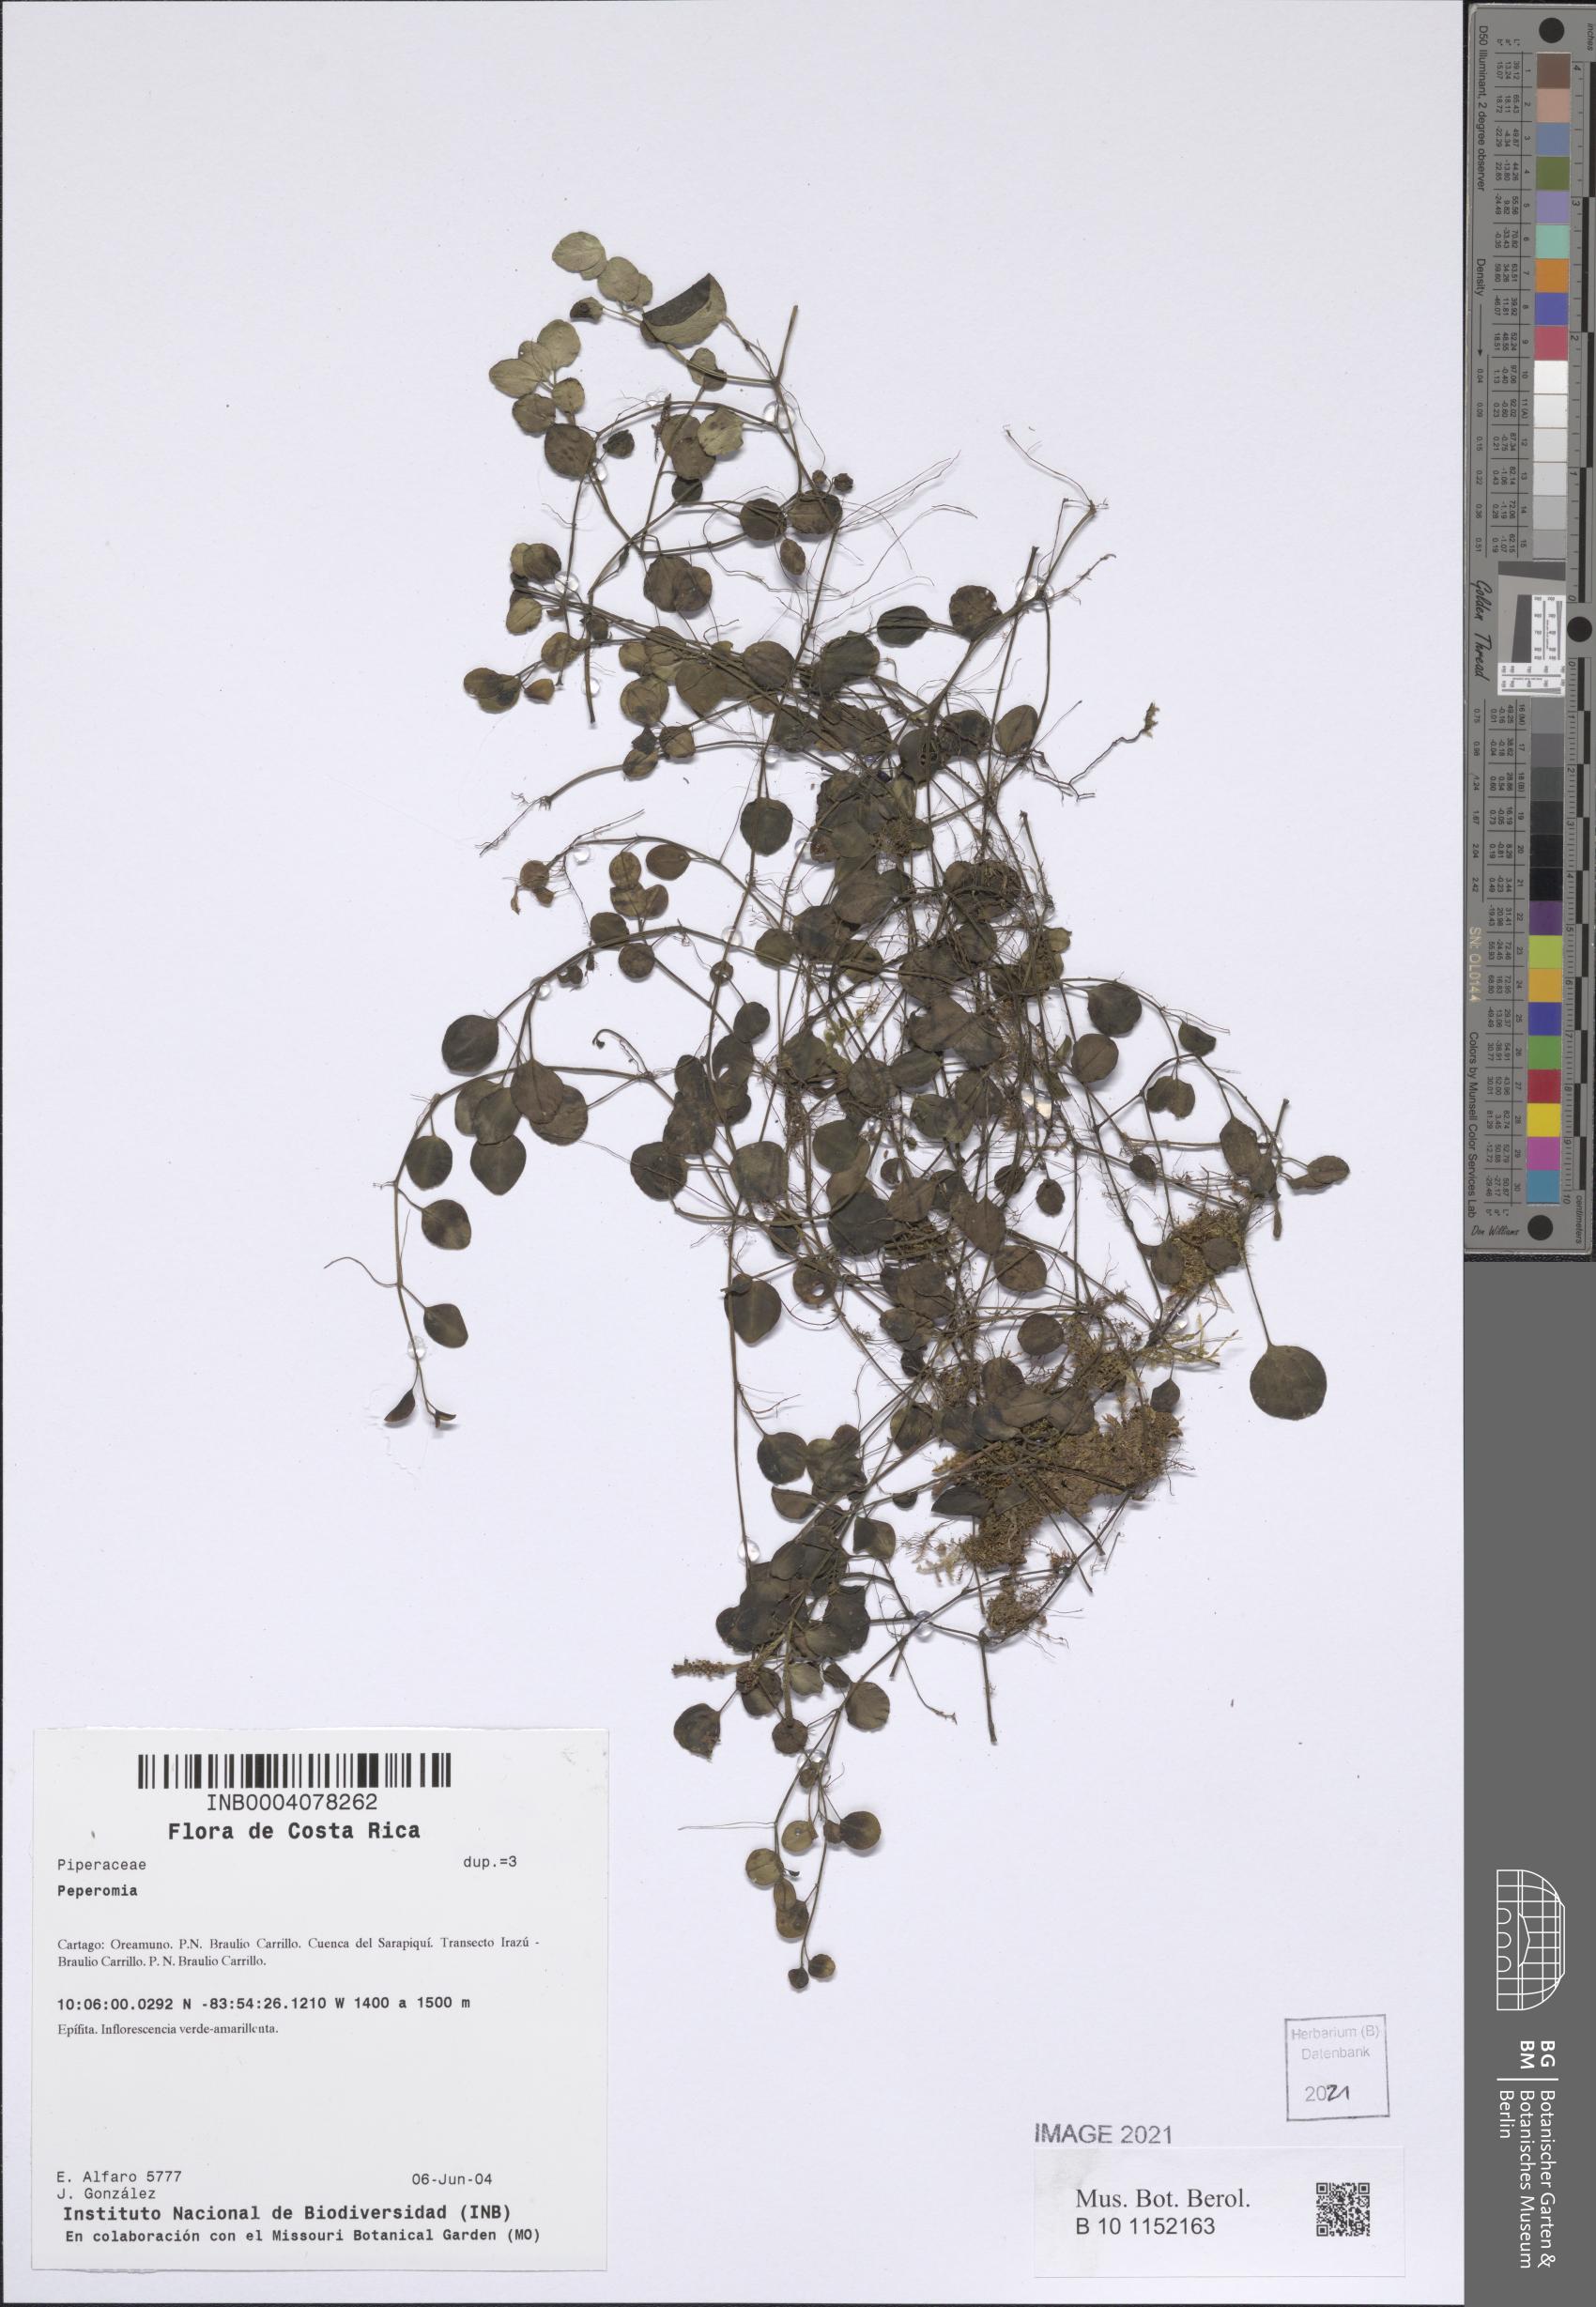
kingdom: Plantae
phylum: Tracheophyta
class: Magnoliopsida
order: Piperales
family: Piperaceae
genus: Peperomia
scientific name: Peperomia
